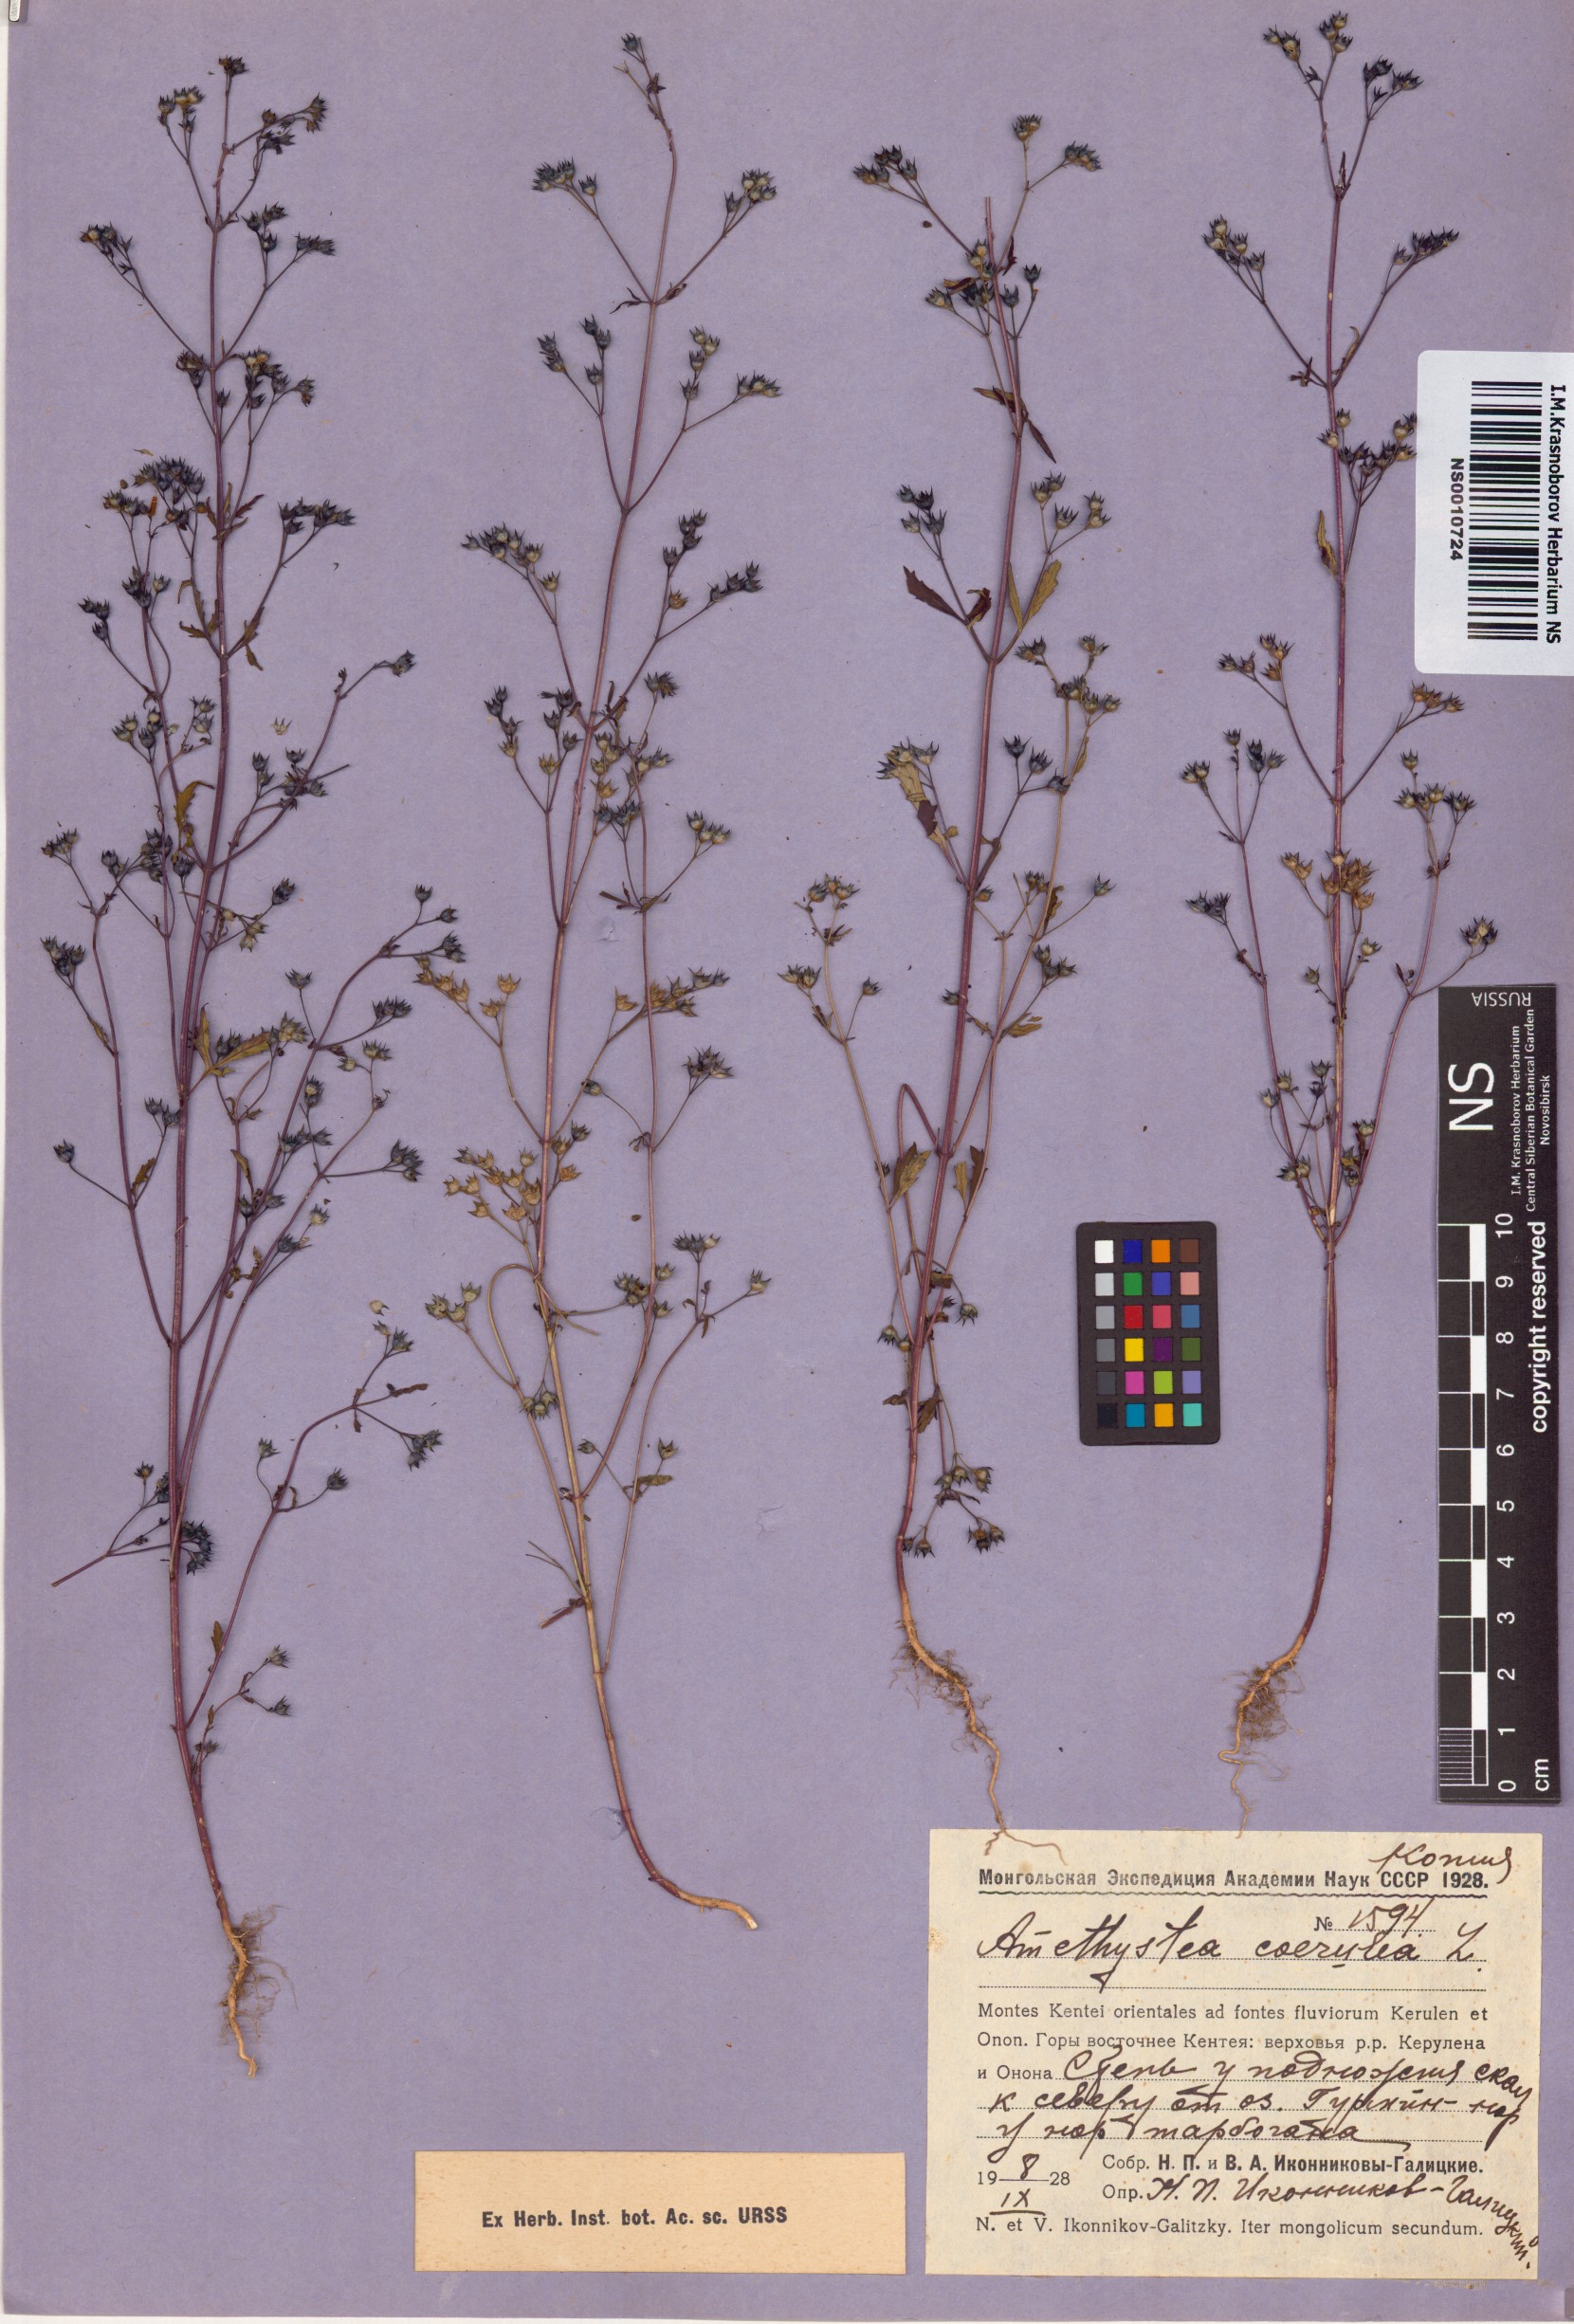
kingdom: Plantae
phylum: Tracheophyta
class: Magnoliopsida
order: Lamiales
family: Lamiaceae
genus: Amethystea
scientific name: Amethystea caerulea
